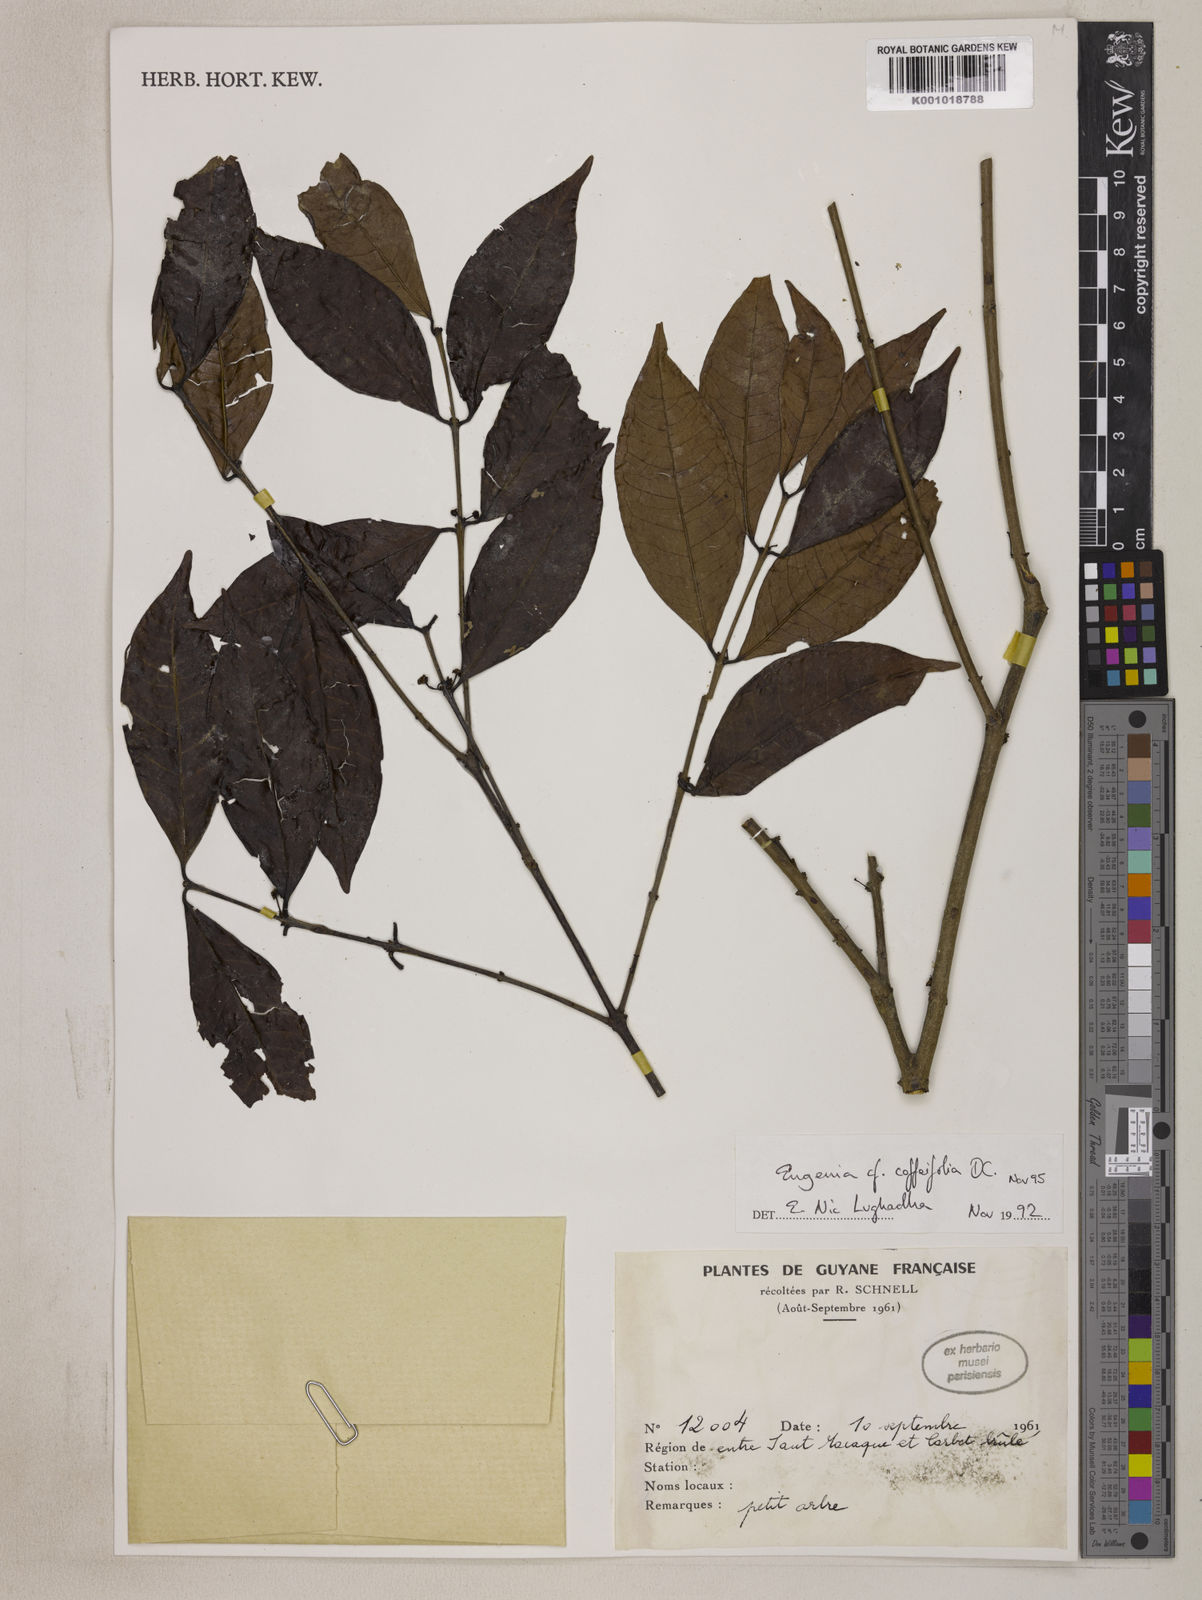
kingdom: Plantae
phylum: Tracheophyta
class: Magnoliopsida
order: Myrtales
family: Myrtaceae
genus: Eugenia
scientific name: Eugenia coffeifolia
